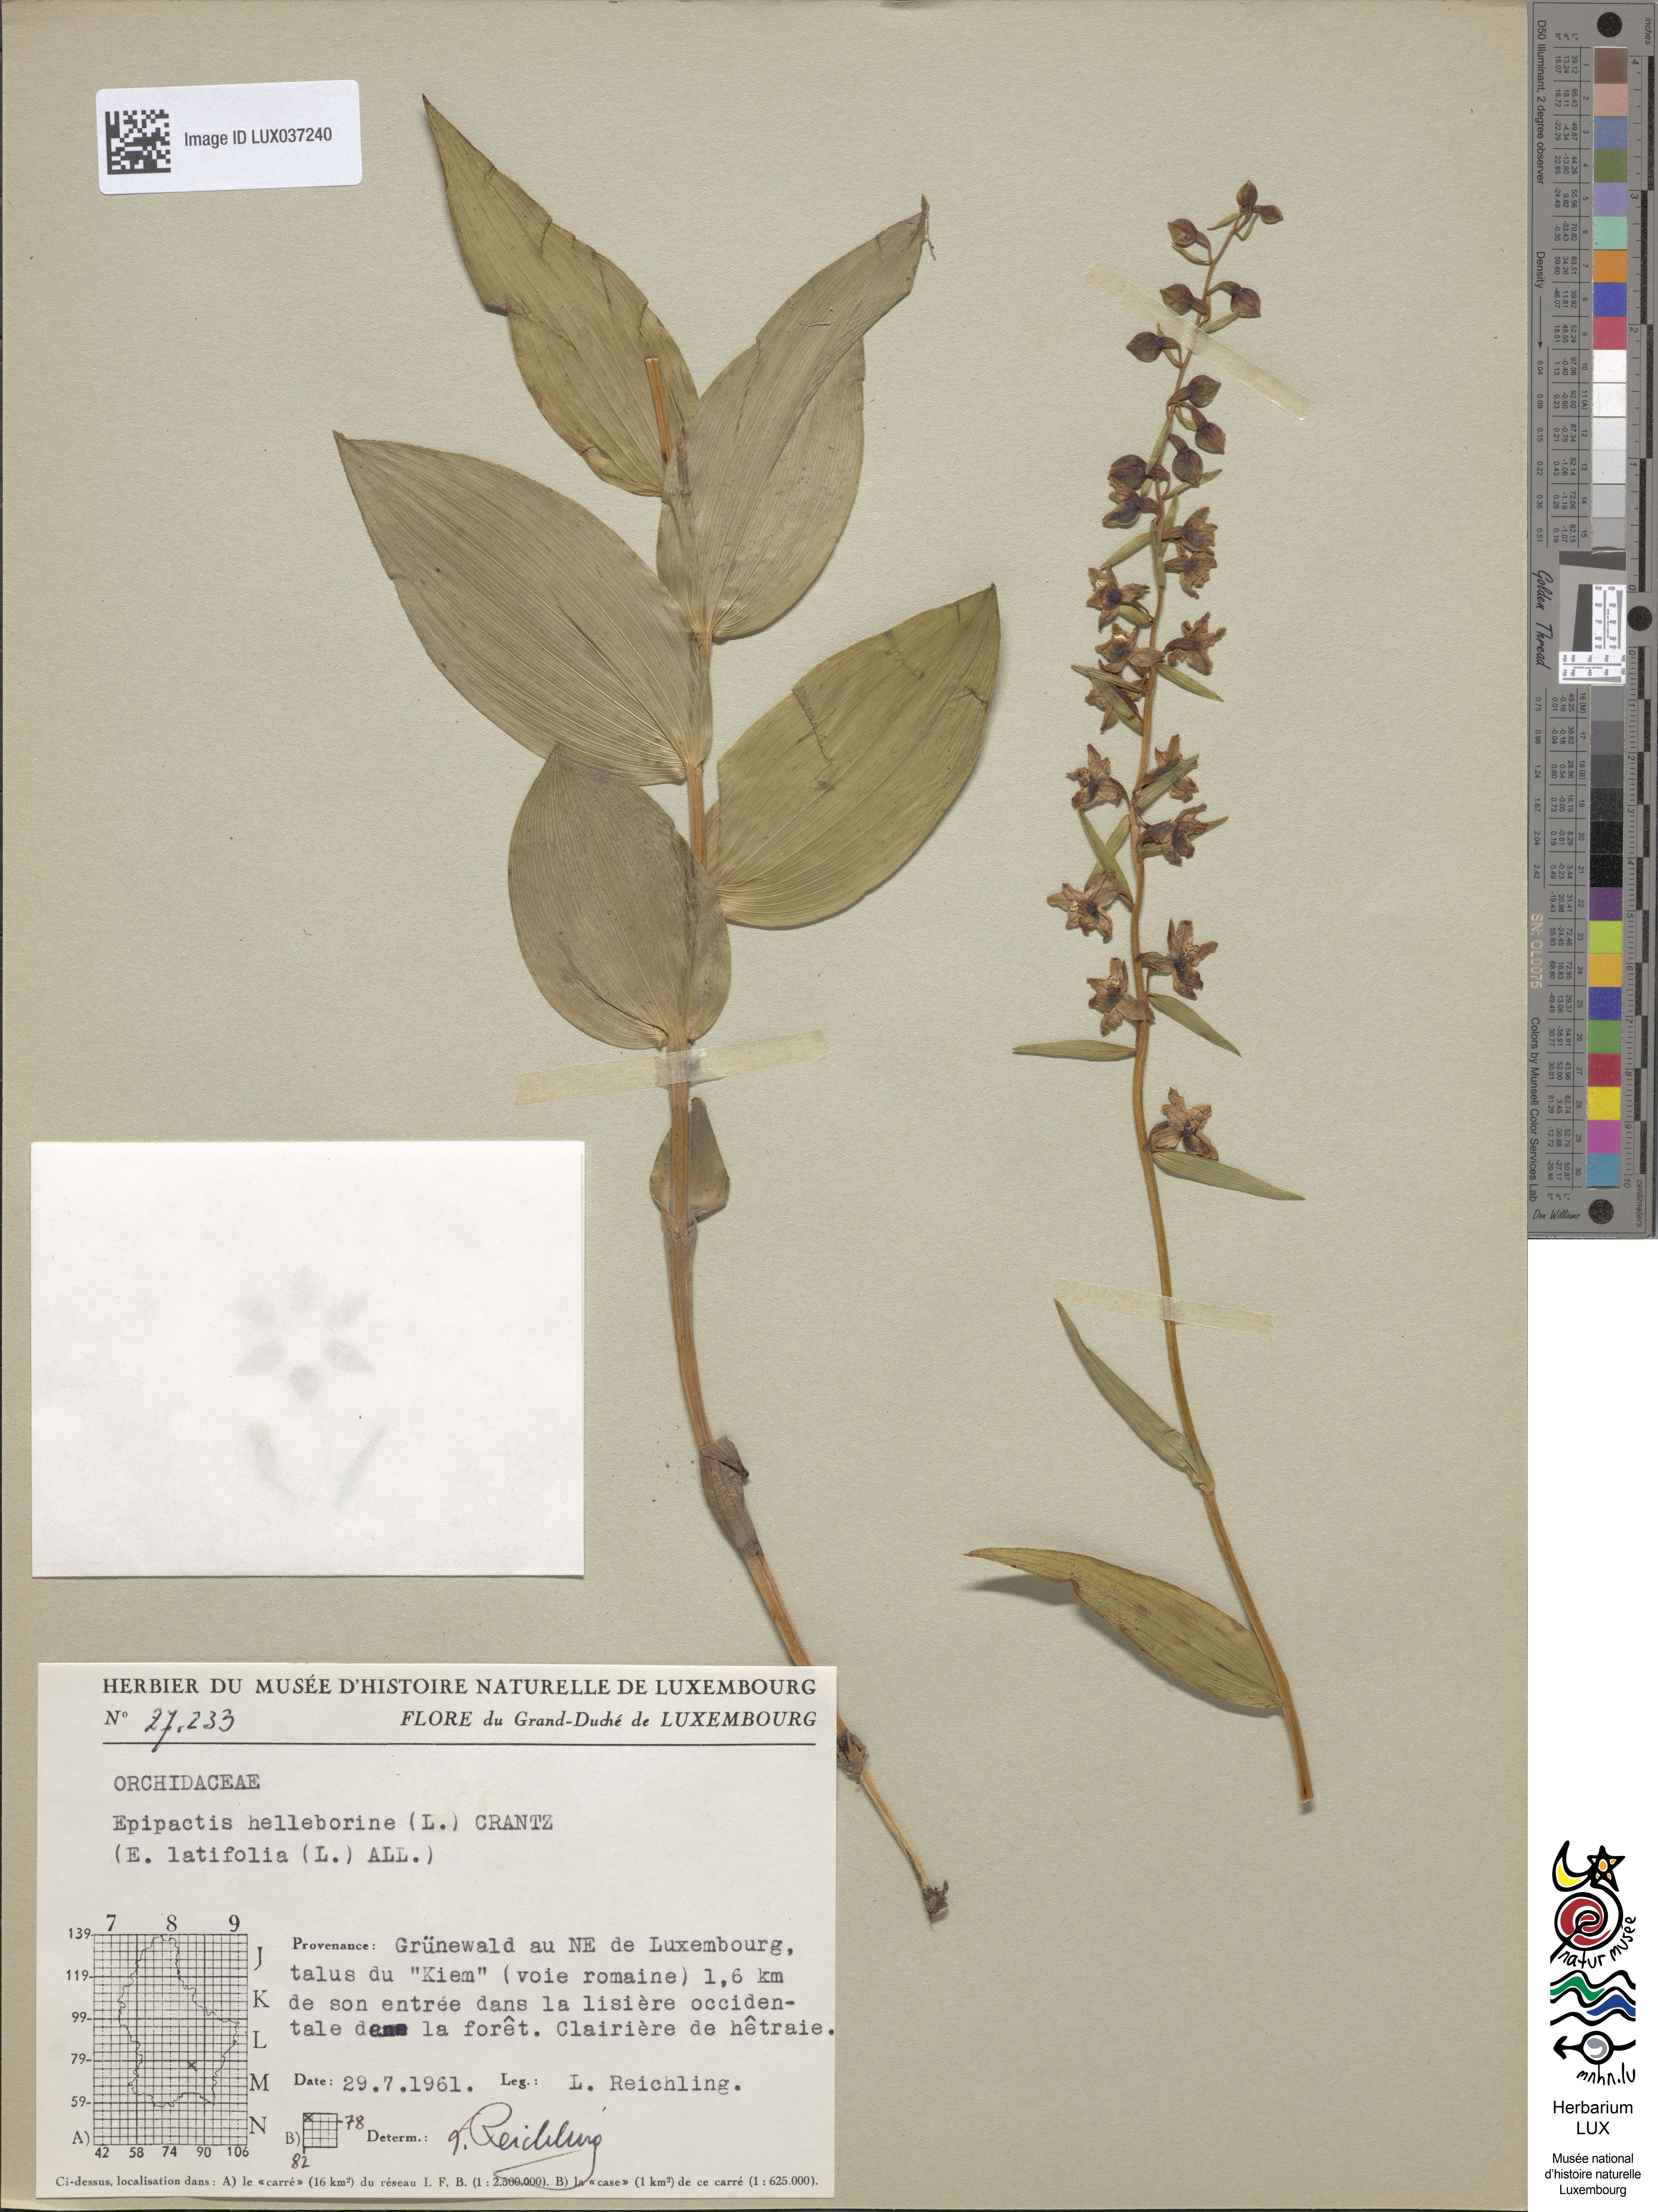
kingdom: Plantae
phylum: Tracheophyta
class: Liliopsida
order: Asparagales
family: Orchidaceae
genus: Epipactis
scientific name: Epipactis helleborine
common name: Broad-leaved helleborine
